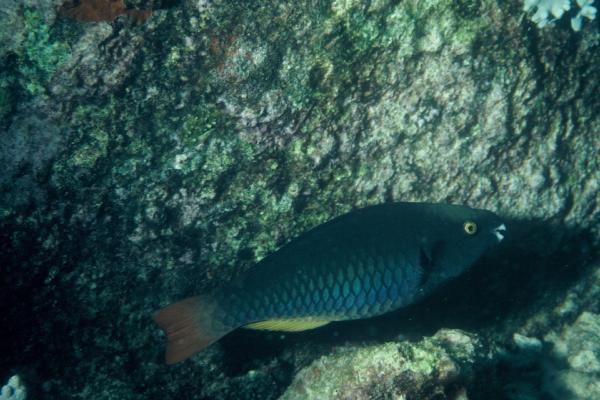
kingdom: Animalia
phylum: Chordata
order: Perciformes
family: Scaridae
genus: Scarus
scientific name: Scarus tricolor
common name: Tricolour parrotfish
